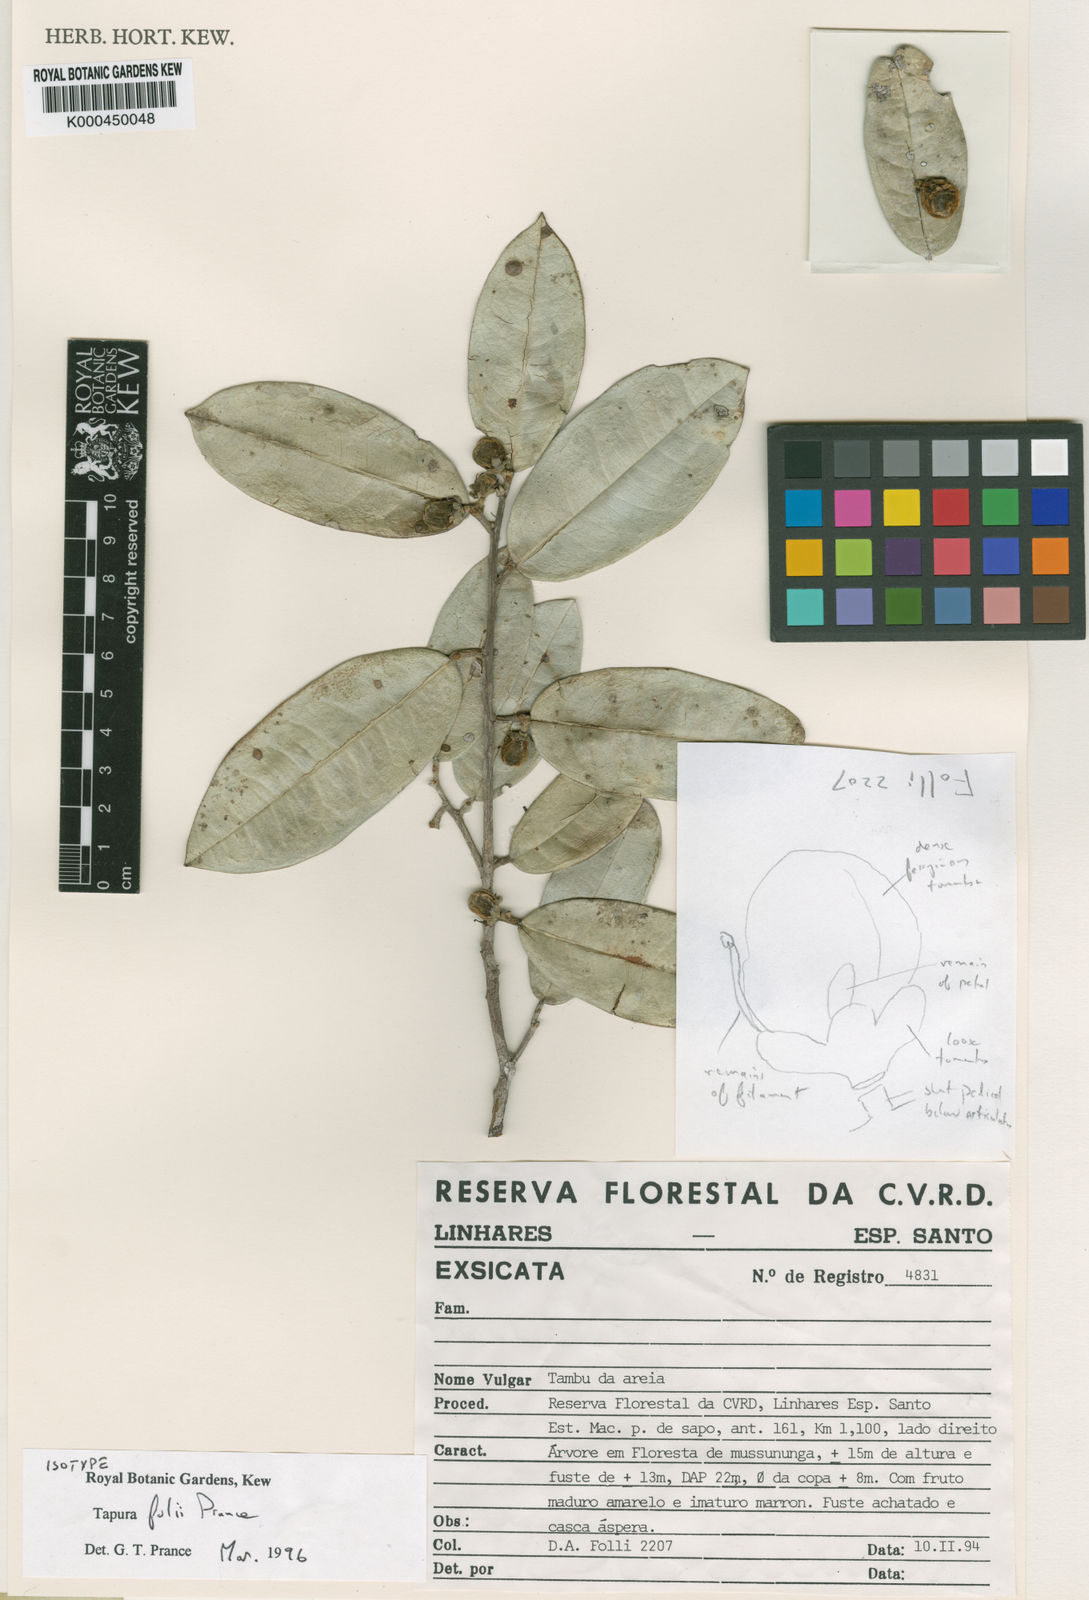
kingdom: Plantae
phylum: Tracheophyta
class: Magnoliopsida
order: Malpighiales
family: Dichapetalaceae
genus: Tapura
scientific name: Tapura follii
